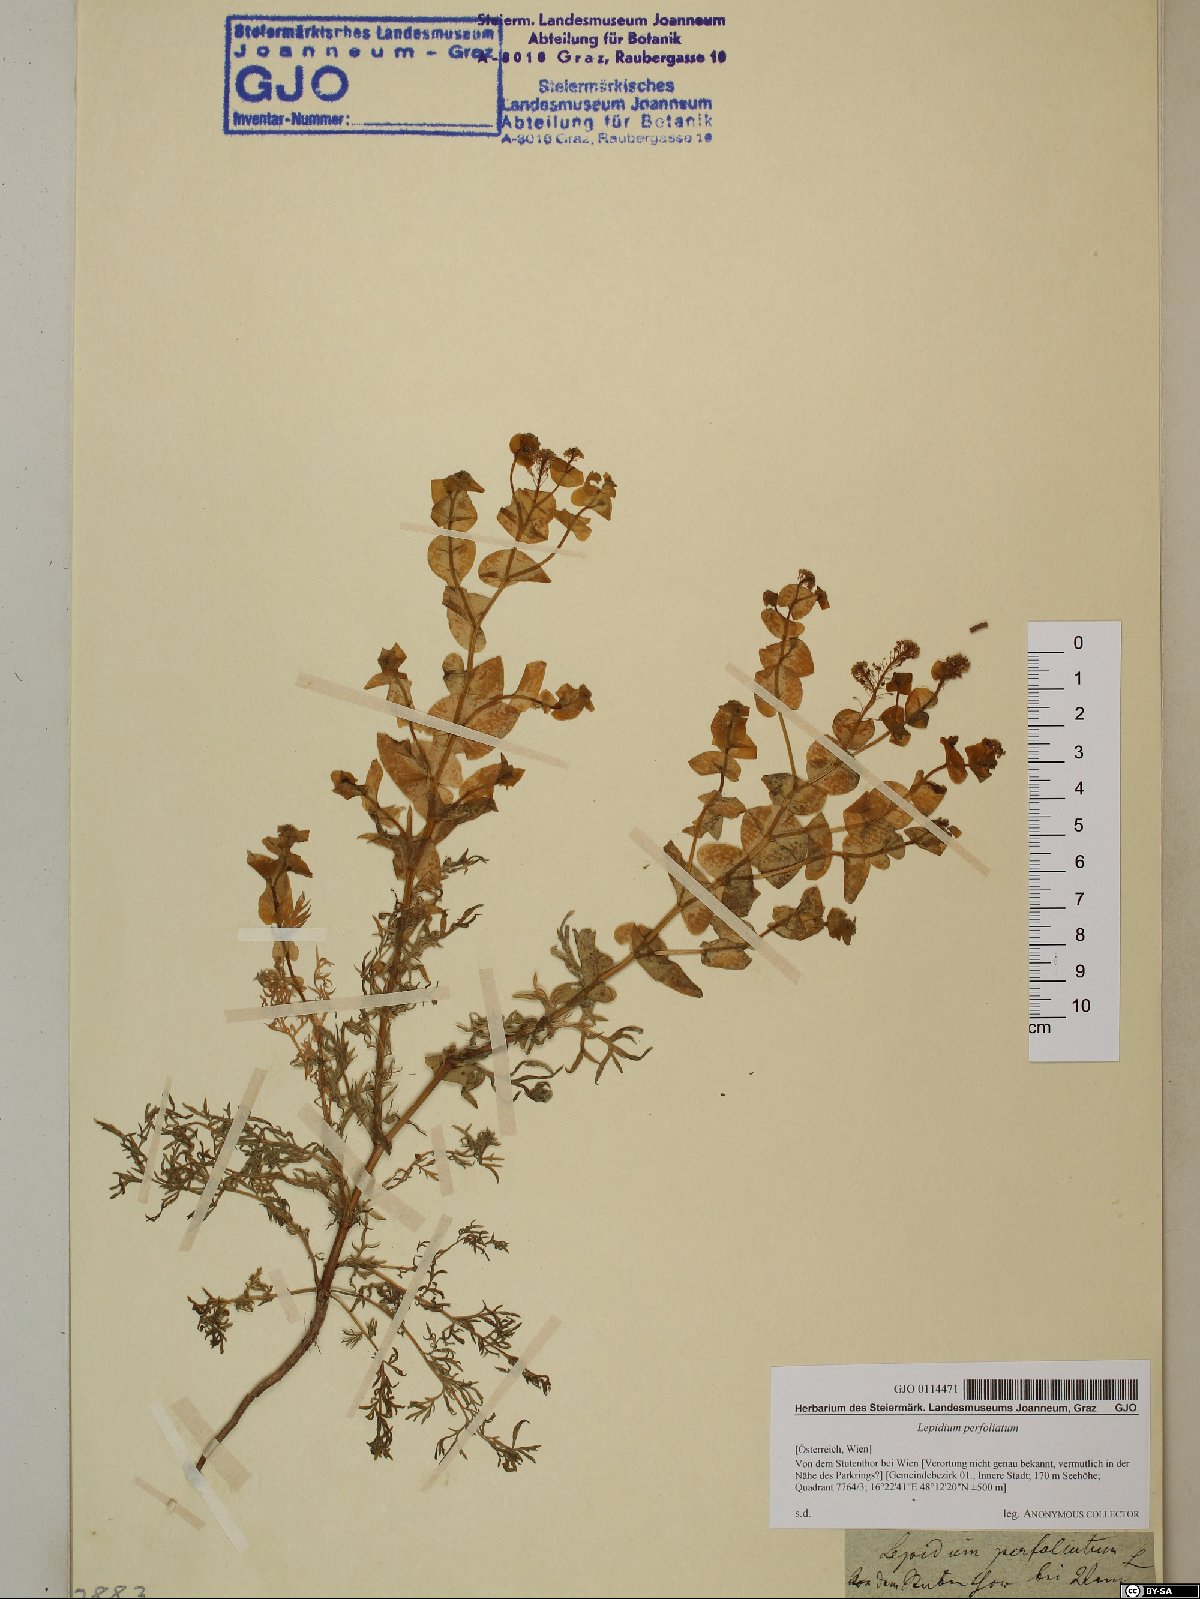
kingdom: Plantae
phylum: Tracheophyta
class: Magnoliopsida
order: Brassicales
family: Brassicaceae
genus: Lepidium
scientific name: Lepidium perfoliatum
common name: Perfoliate pepperwort
